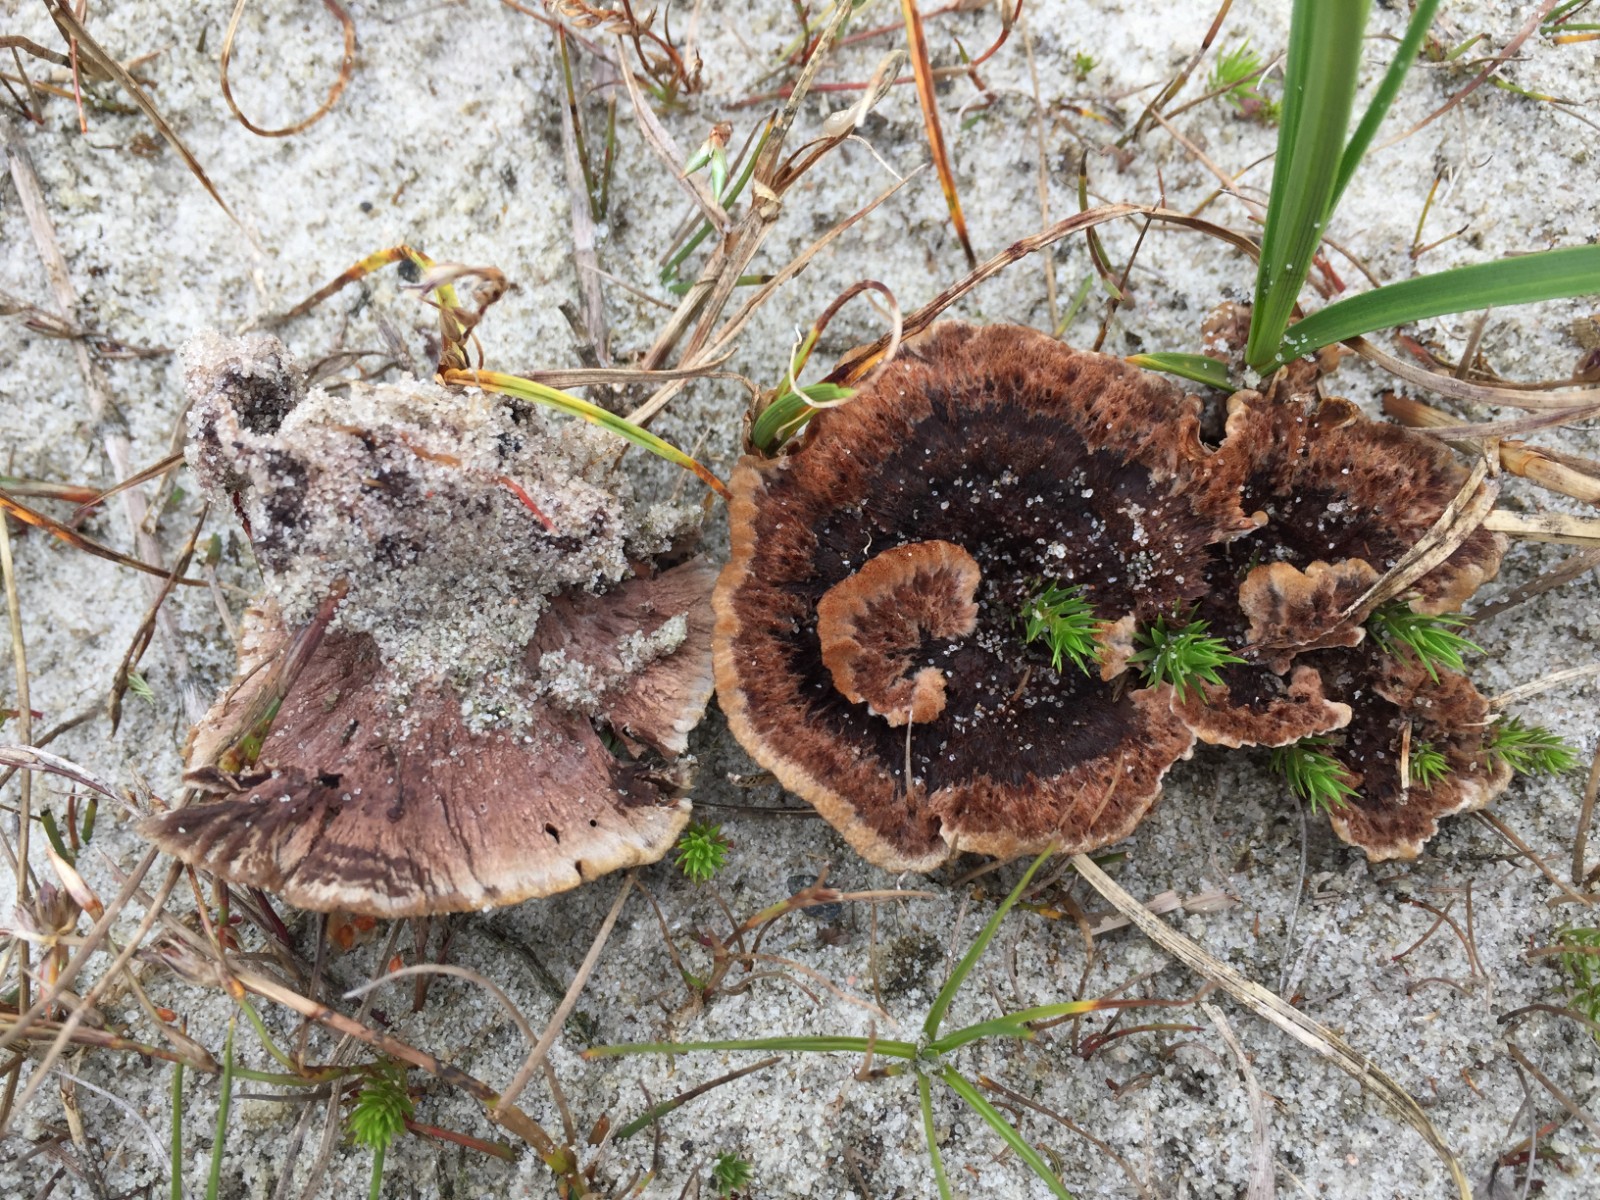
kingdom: Fungi
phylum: Basidiomycota
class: Agaricomycetes
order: Thelephorales
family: Thelephoraceae
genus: Thelephora
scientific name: Thelephora terrestris
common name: fliget frynsesvamp
